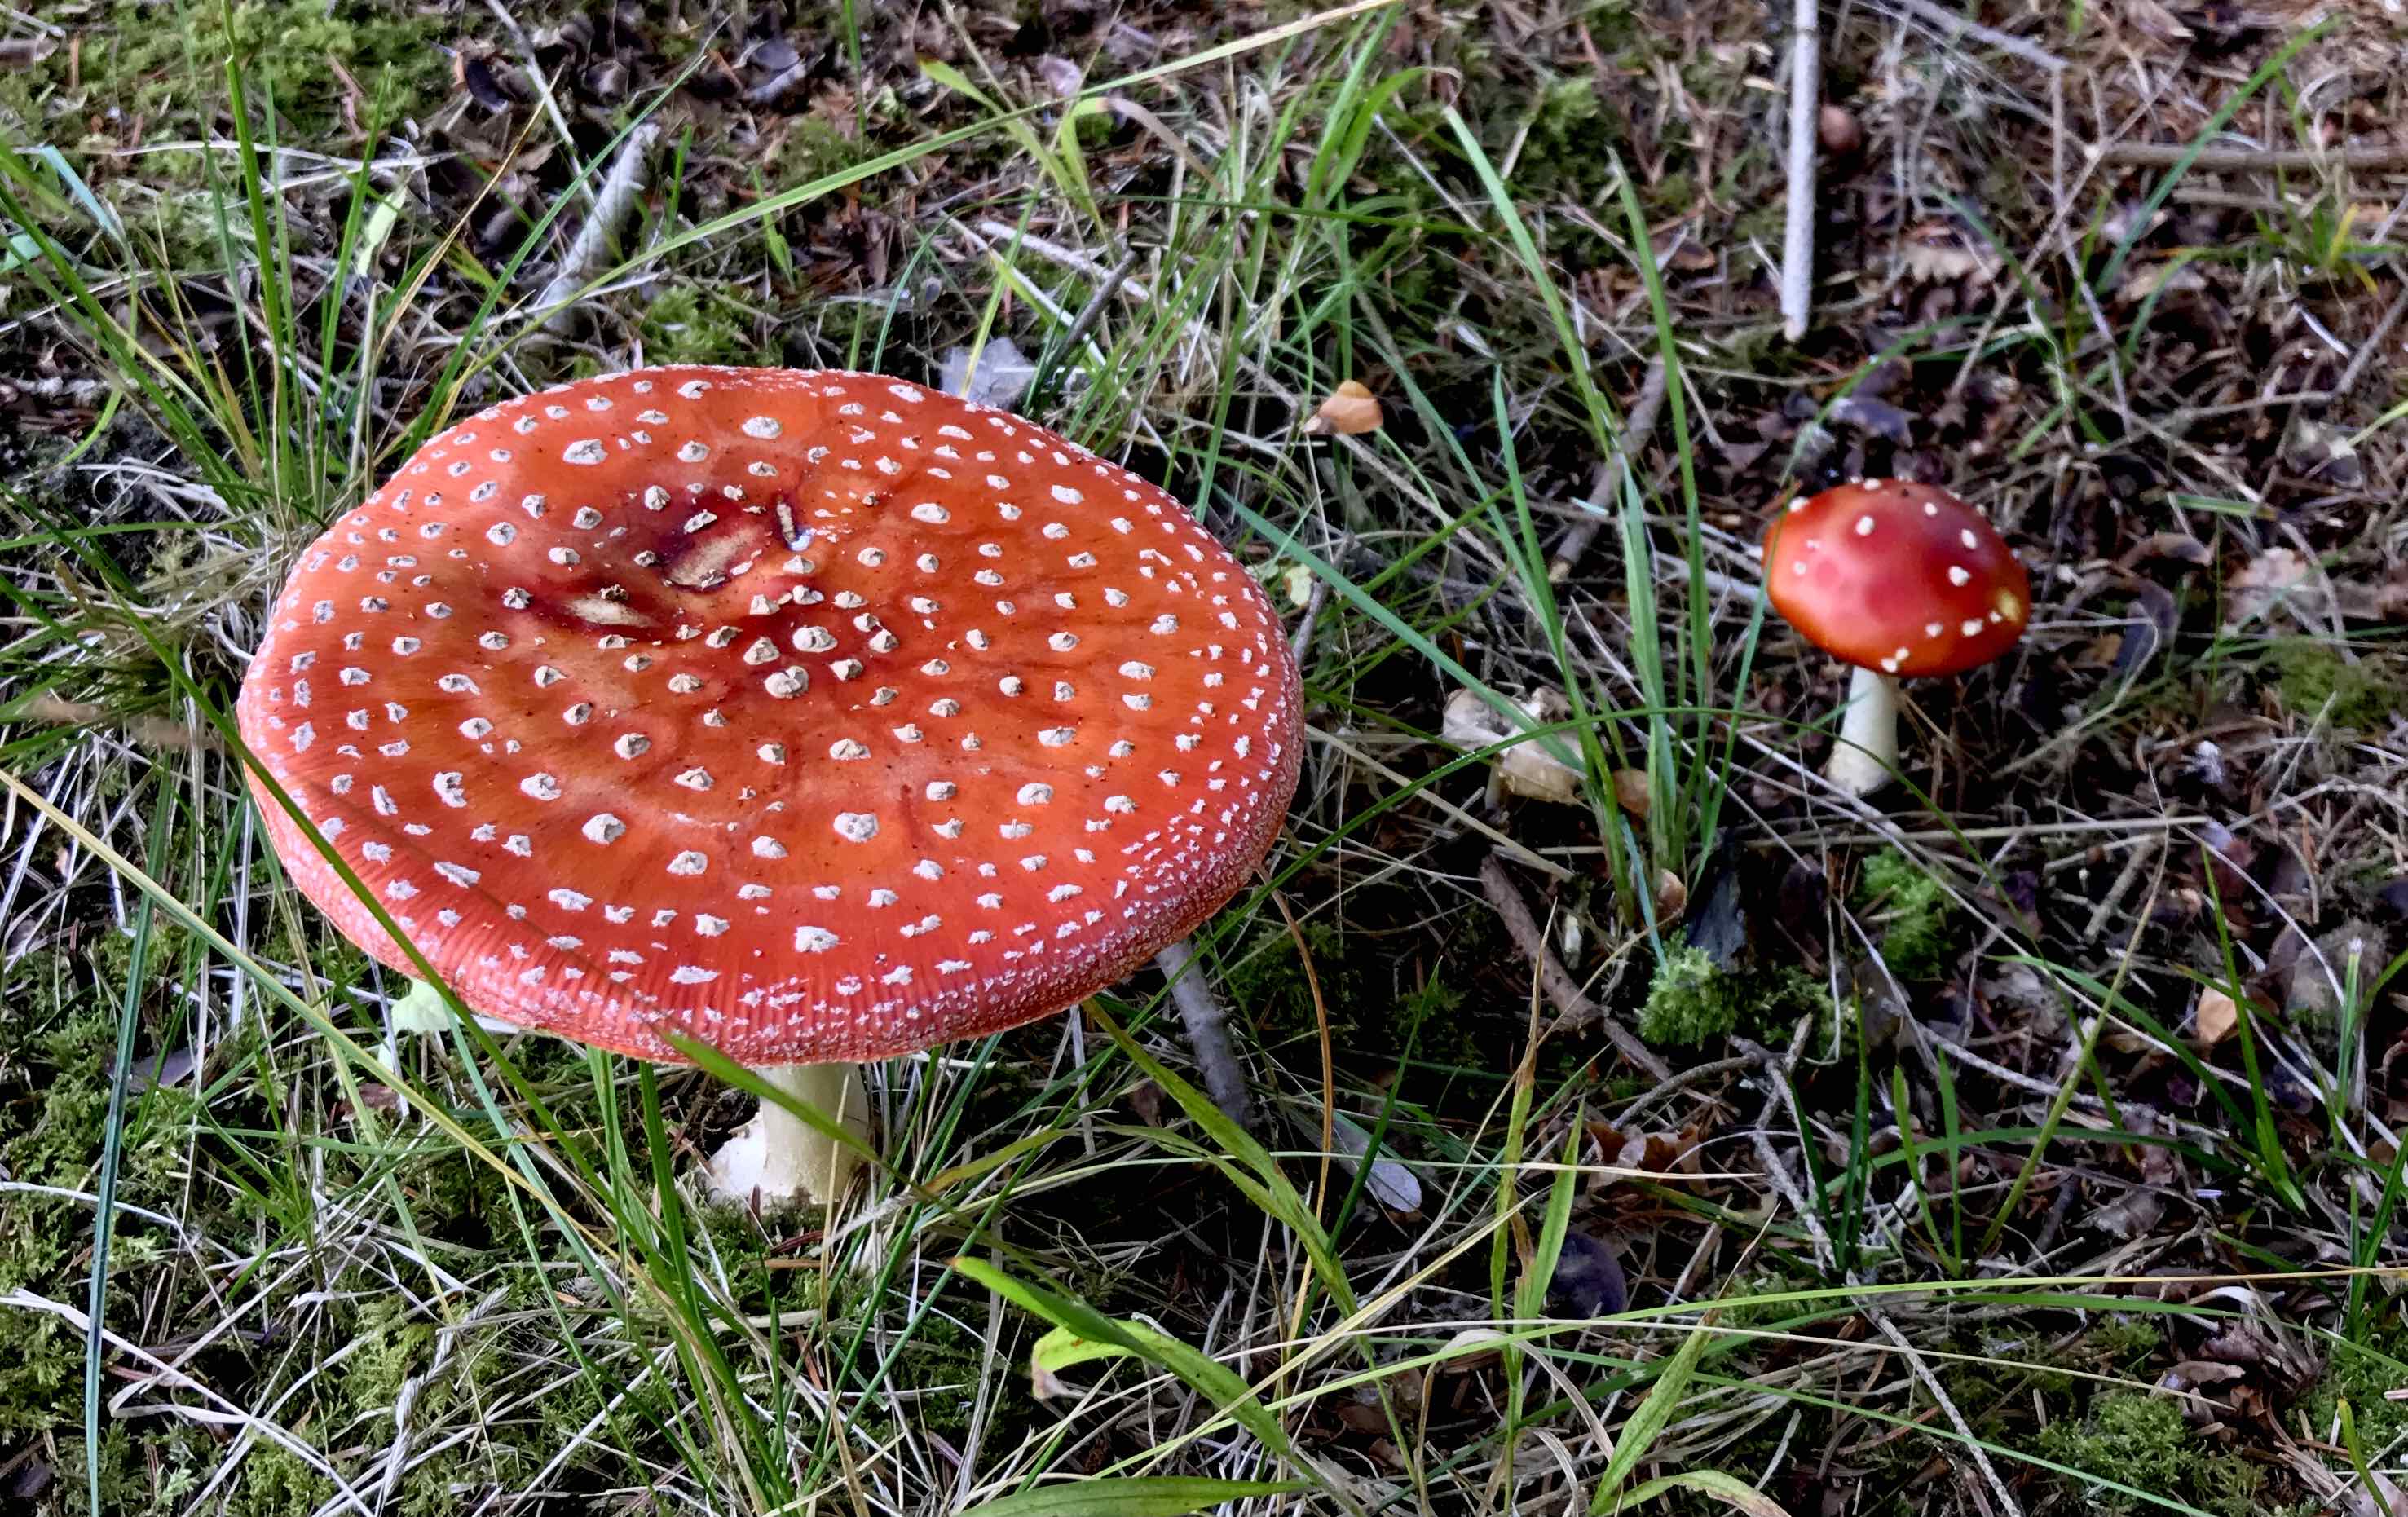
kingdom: Fungi
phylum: Basidiomycota
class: Agaricomycetes
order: Agaricales
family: Amanitaceae
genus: Amanita
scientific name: Amanita muscaria
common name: rød fluesvamp
